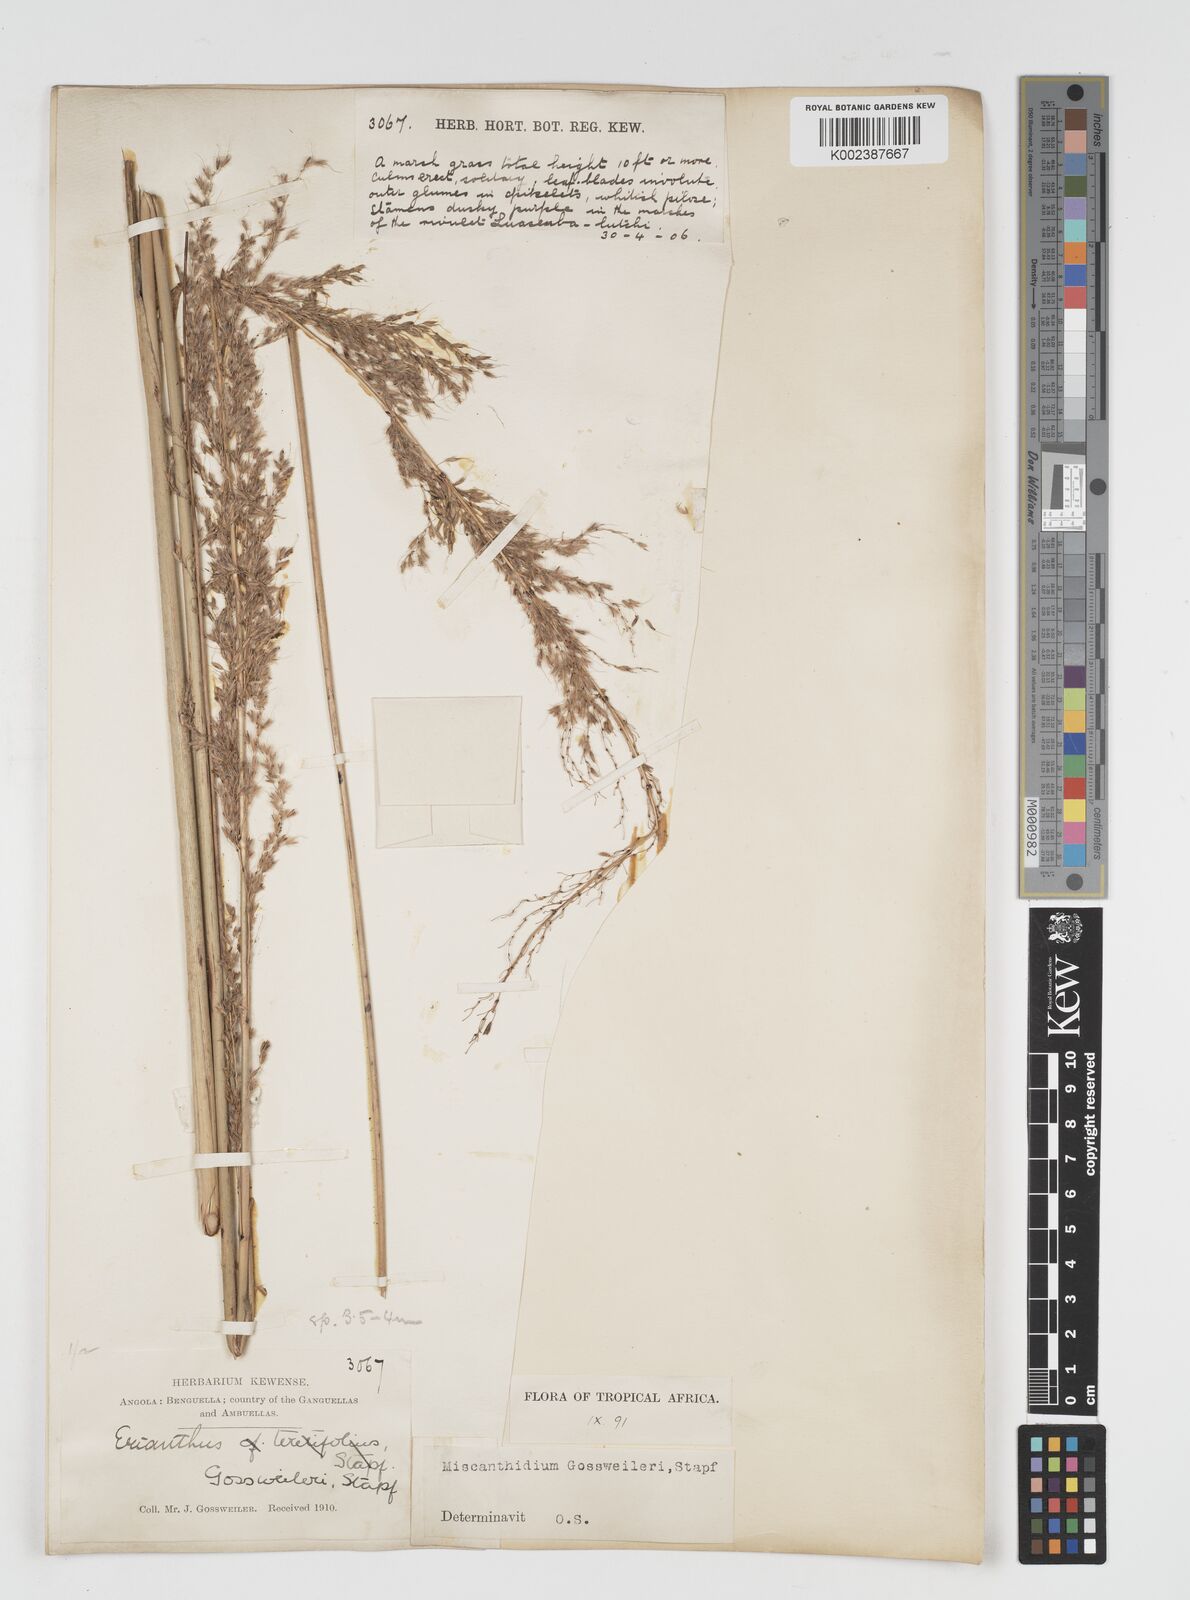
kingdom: Plantae
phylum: Tracheophyta
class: Liliopsida
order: Poales
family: Poaceae
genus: Miscanthidium
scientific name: Miscanthidium junceum
